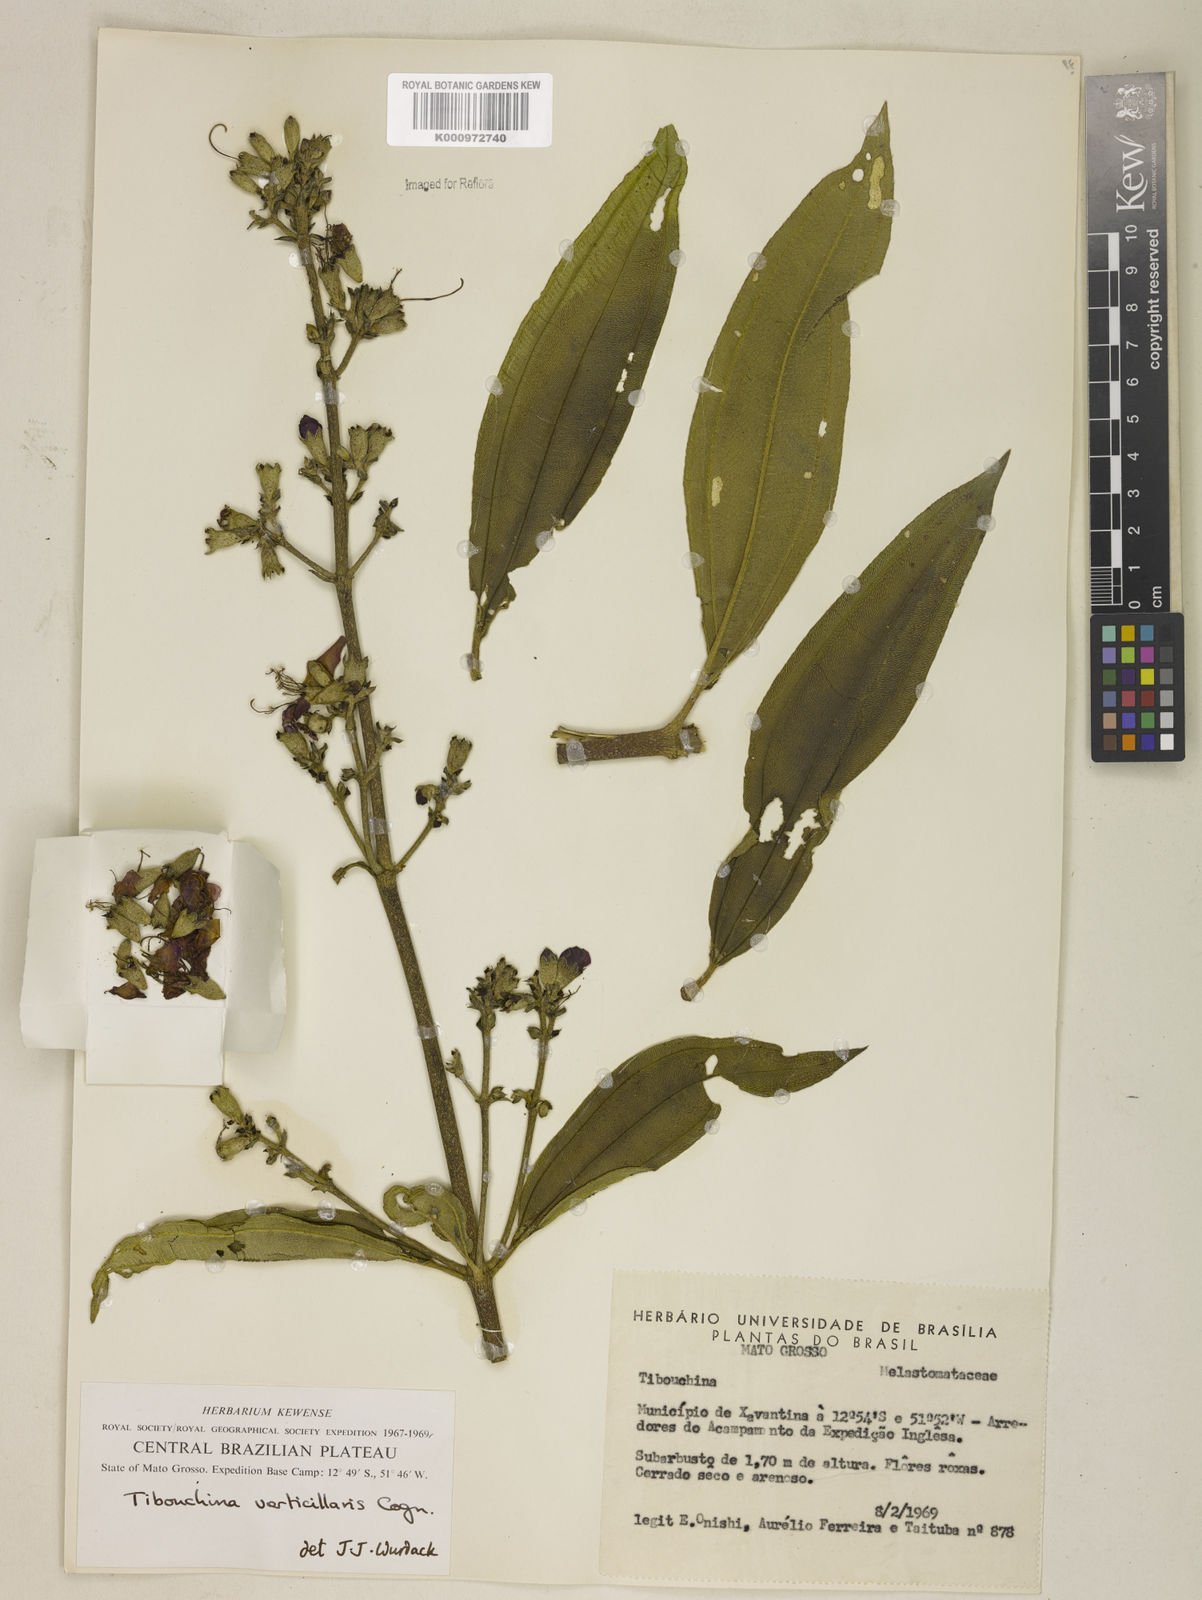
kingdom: Plantae
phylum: Tracheophyta
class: Magnoliopsida
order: Myrtales
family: Melastomataceae
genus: Tibouchina
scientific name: Tibouchina verticillaris
